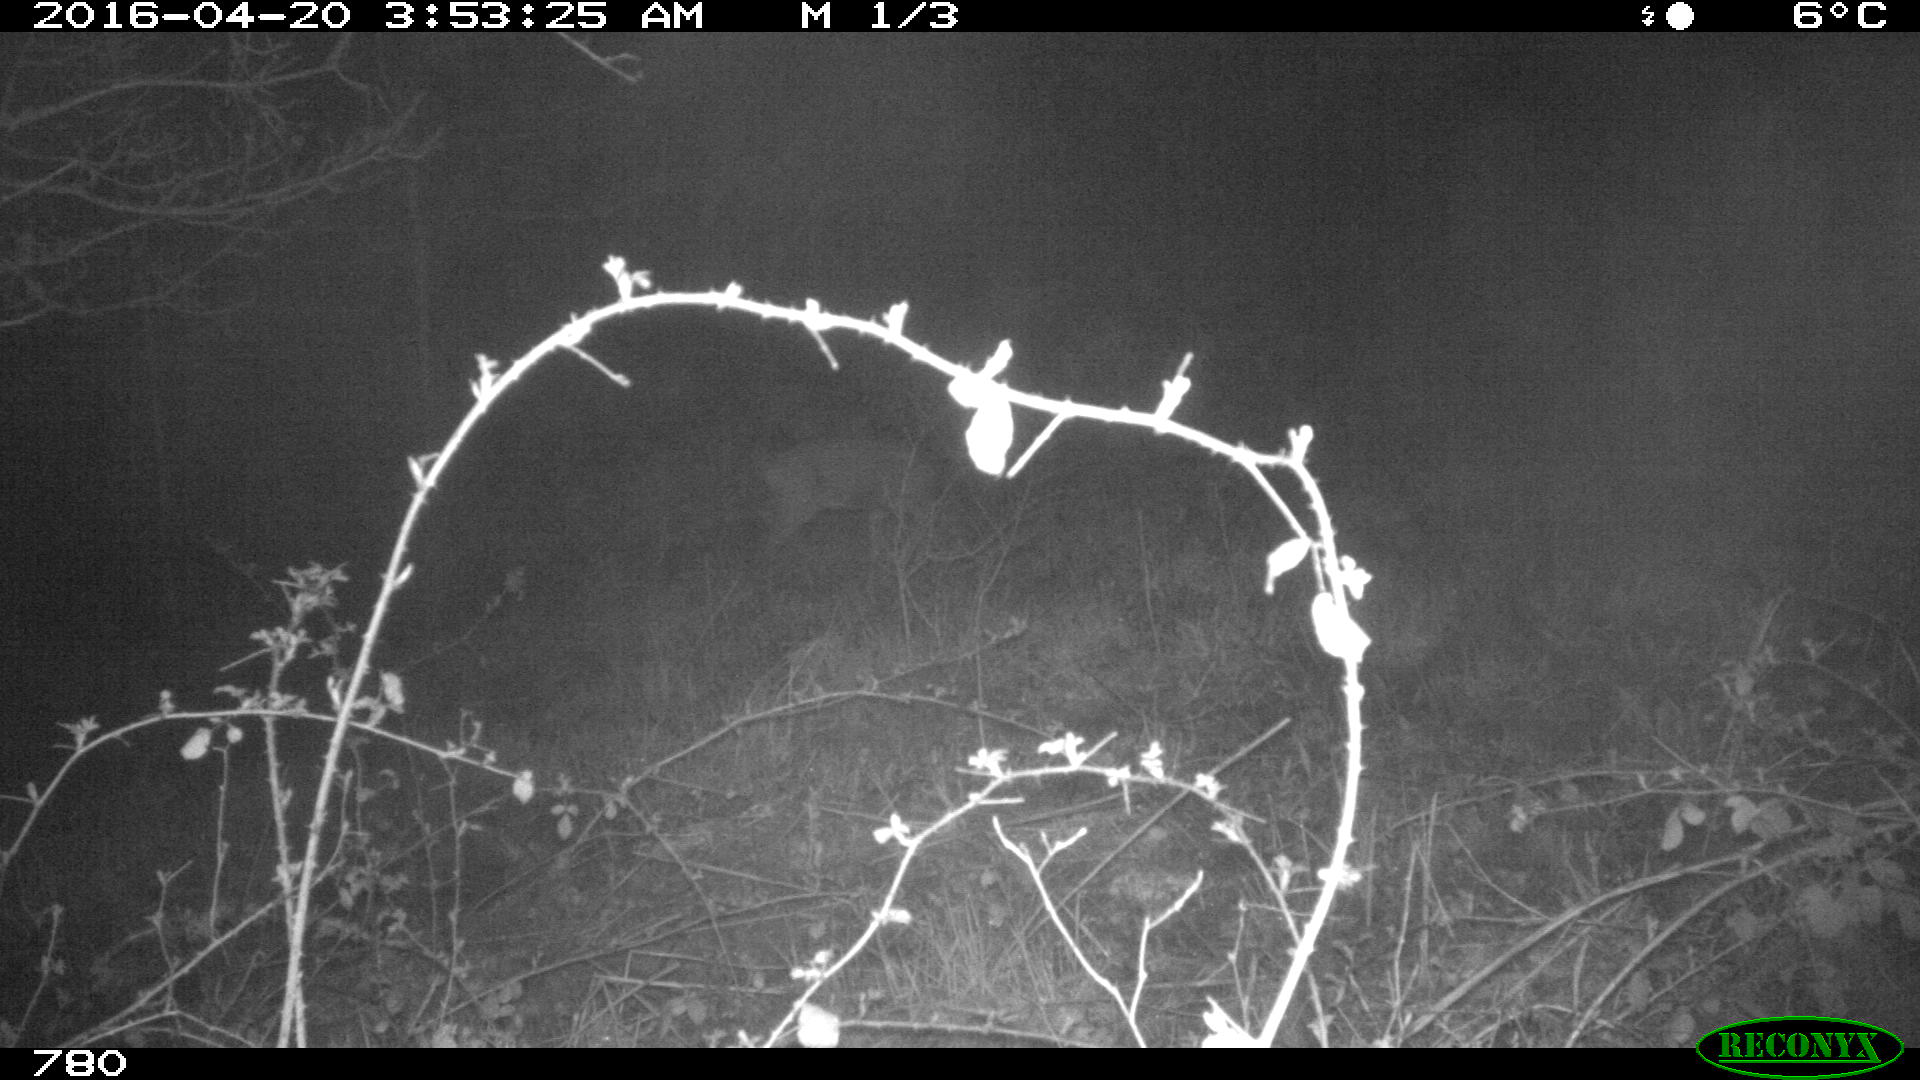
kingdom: Animalia
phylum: Chordata
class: Mammalia
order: Artiodactyla
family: Cervidae
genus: Capreolus
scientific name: Capreolus capreolus
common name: Western roe deer
